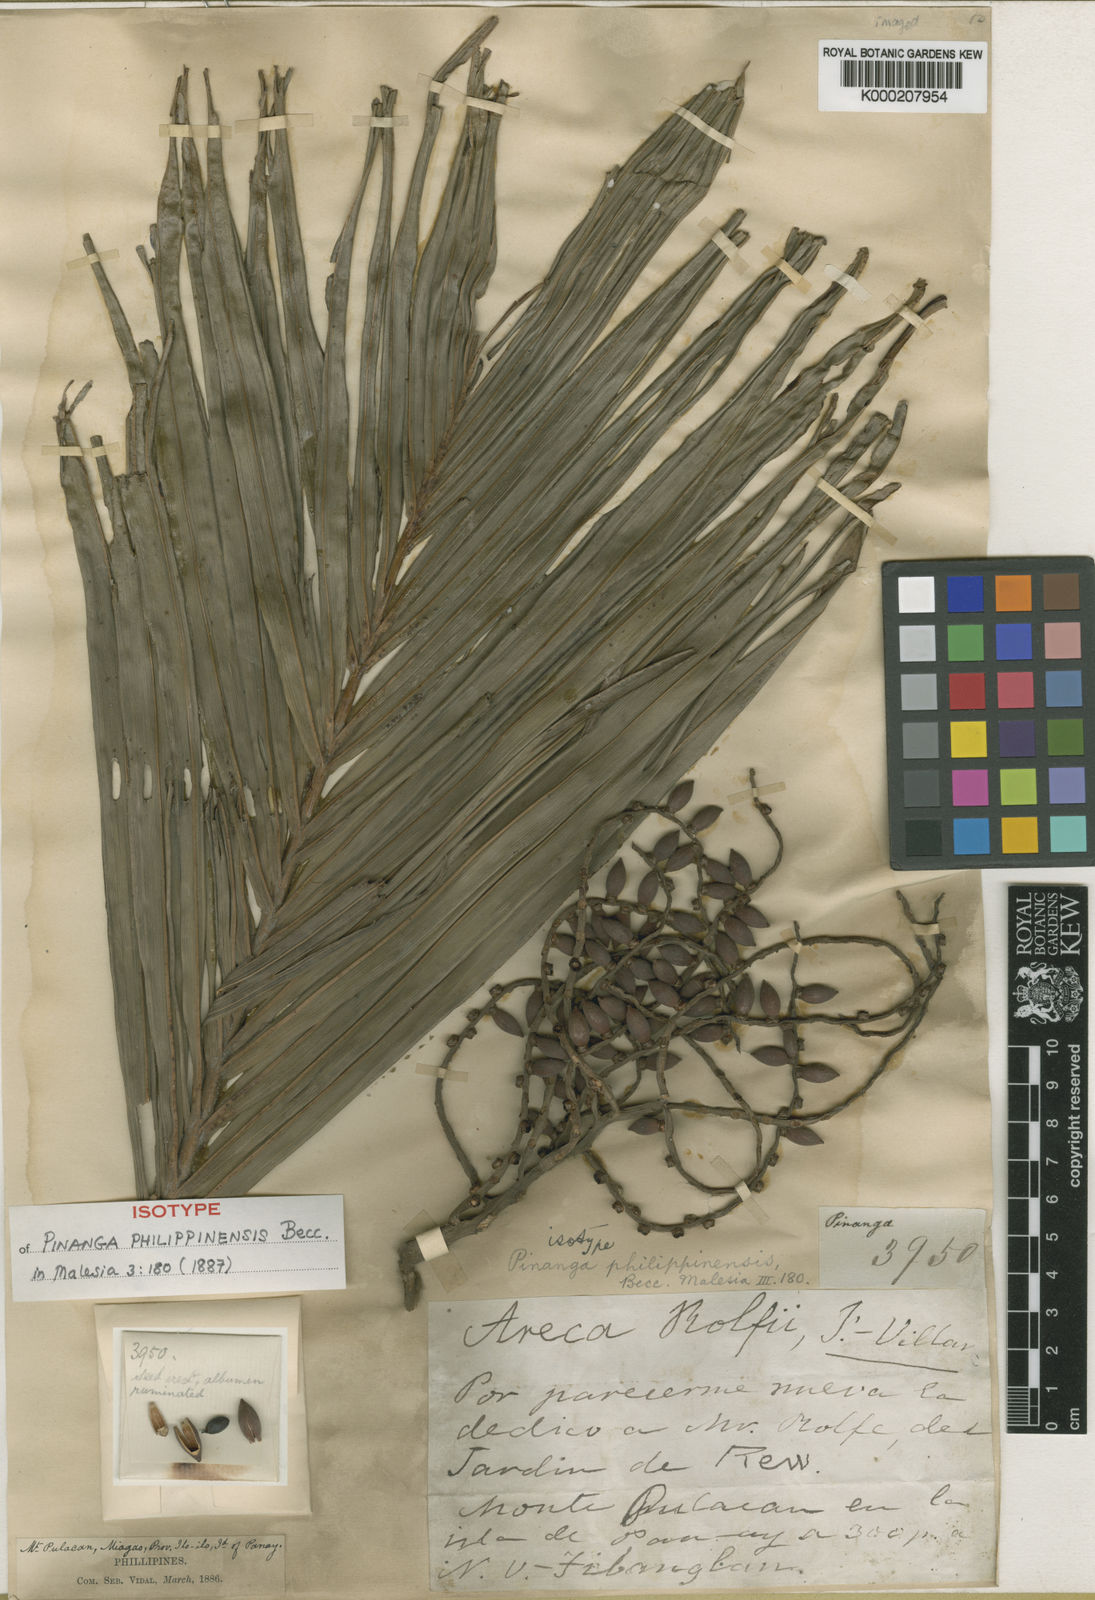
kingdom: Plantae
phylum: Tracheophyta
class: Liliopsida
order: Arecales
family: Arecaceae
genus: Pinanga
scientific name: Pinanga philippinensis
